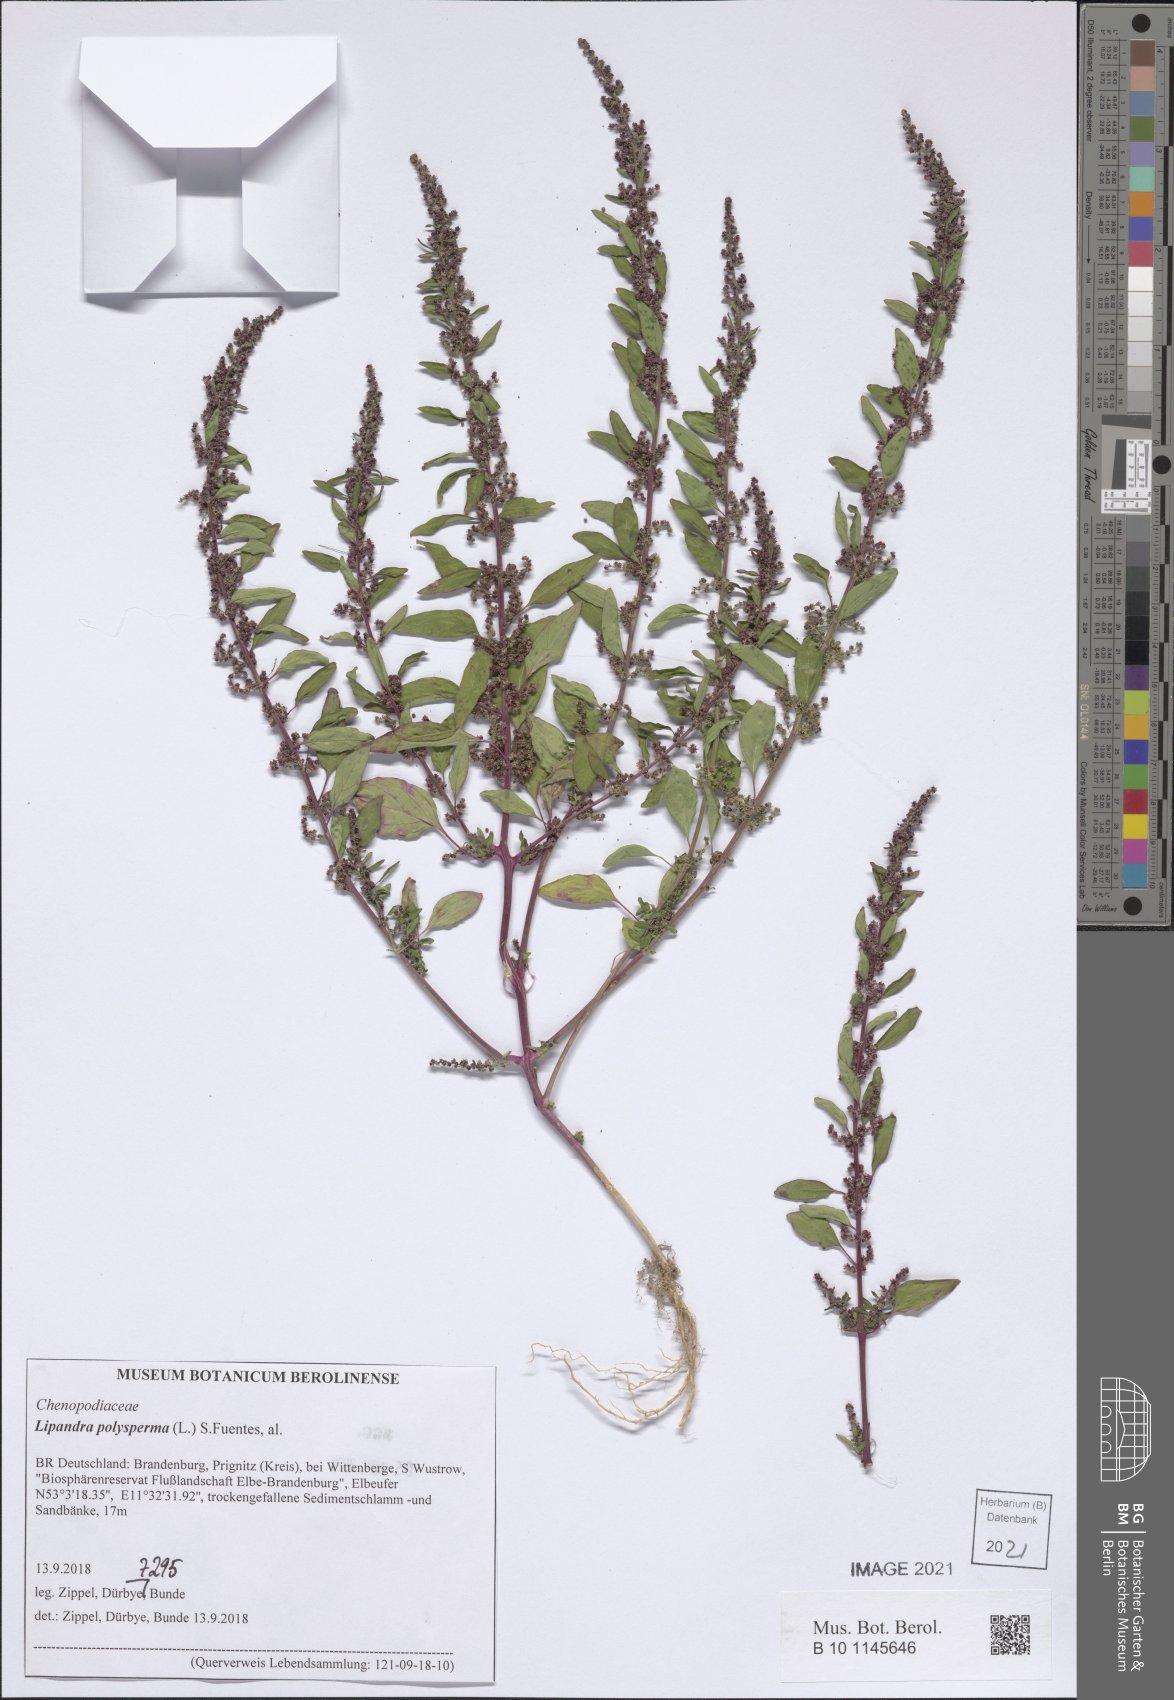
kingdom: Plantae
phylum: Tracheophyta
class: Magnoliopsida
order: Caryophyllales
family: Amaranthaceae
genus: Lipandra
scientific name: Lipandra polysperma
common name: Many-seed goosefoot
